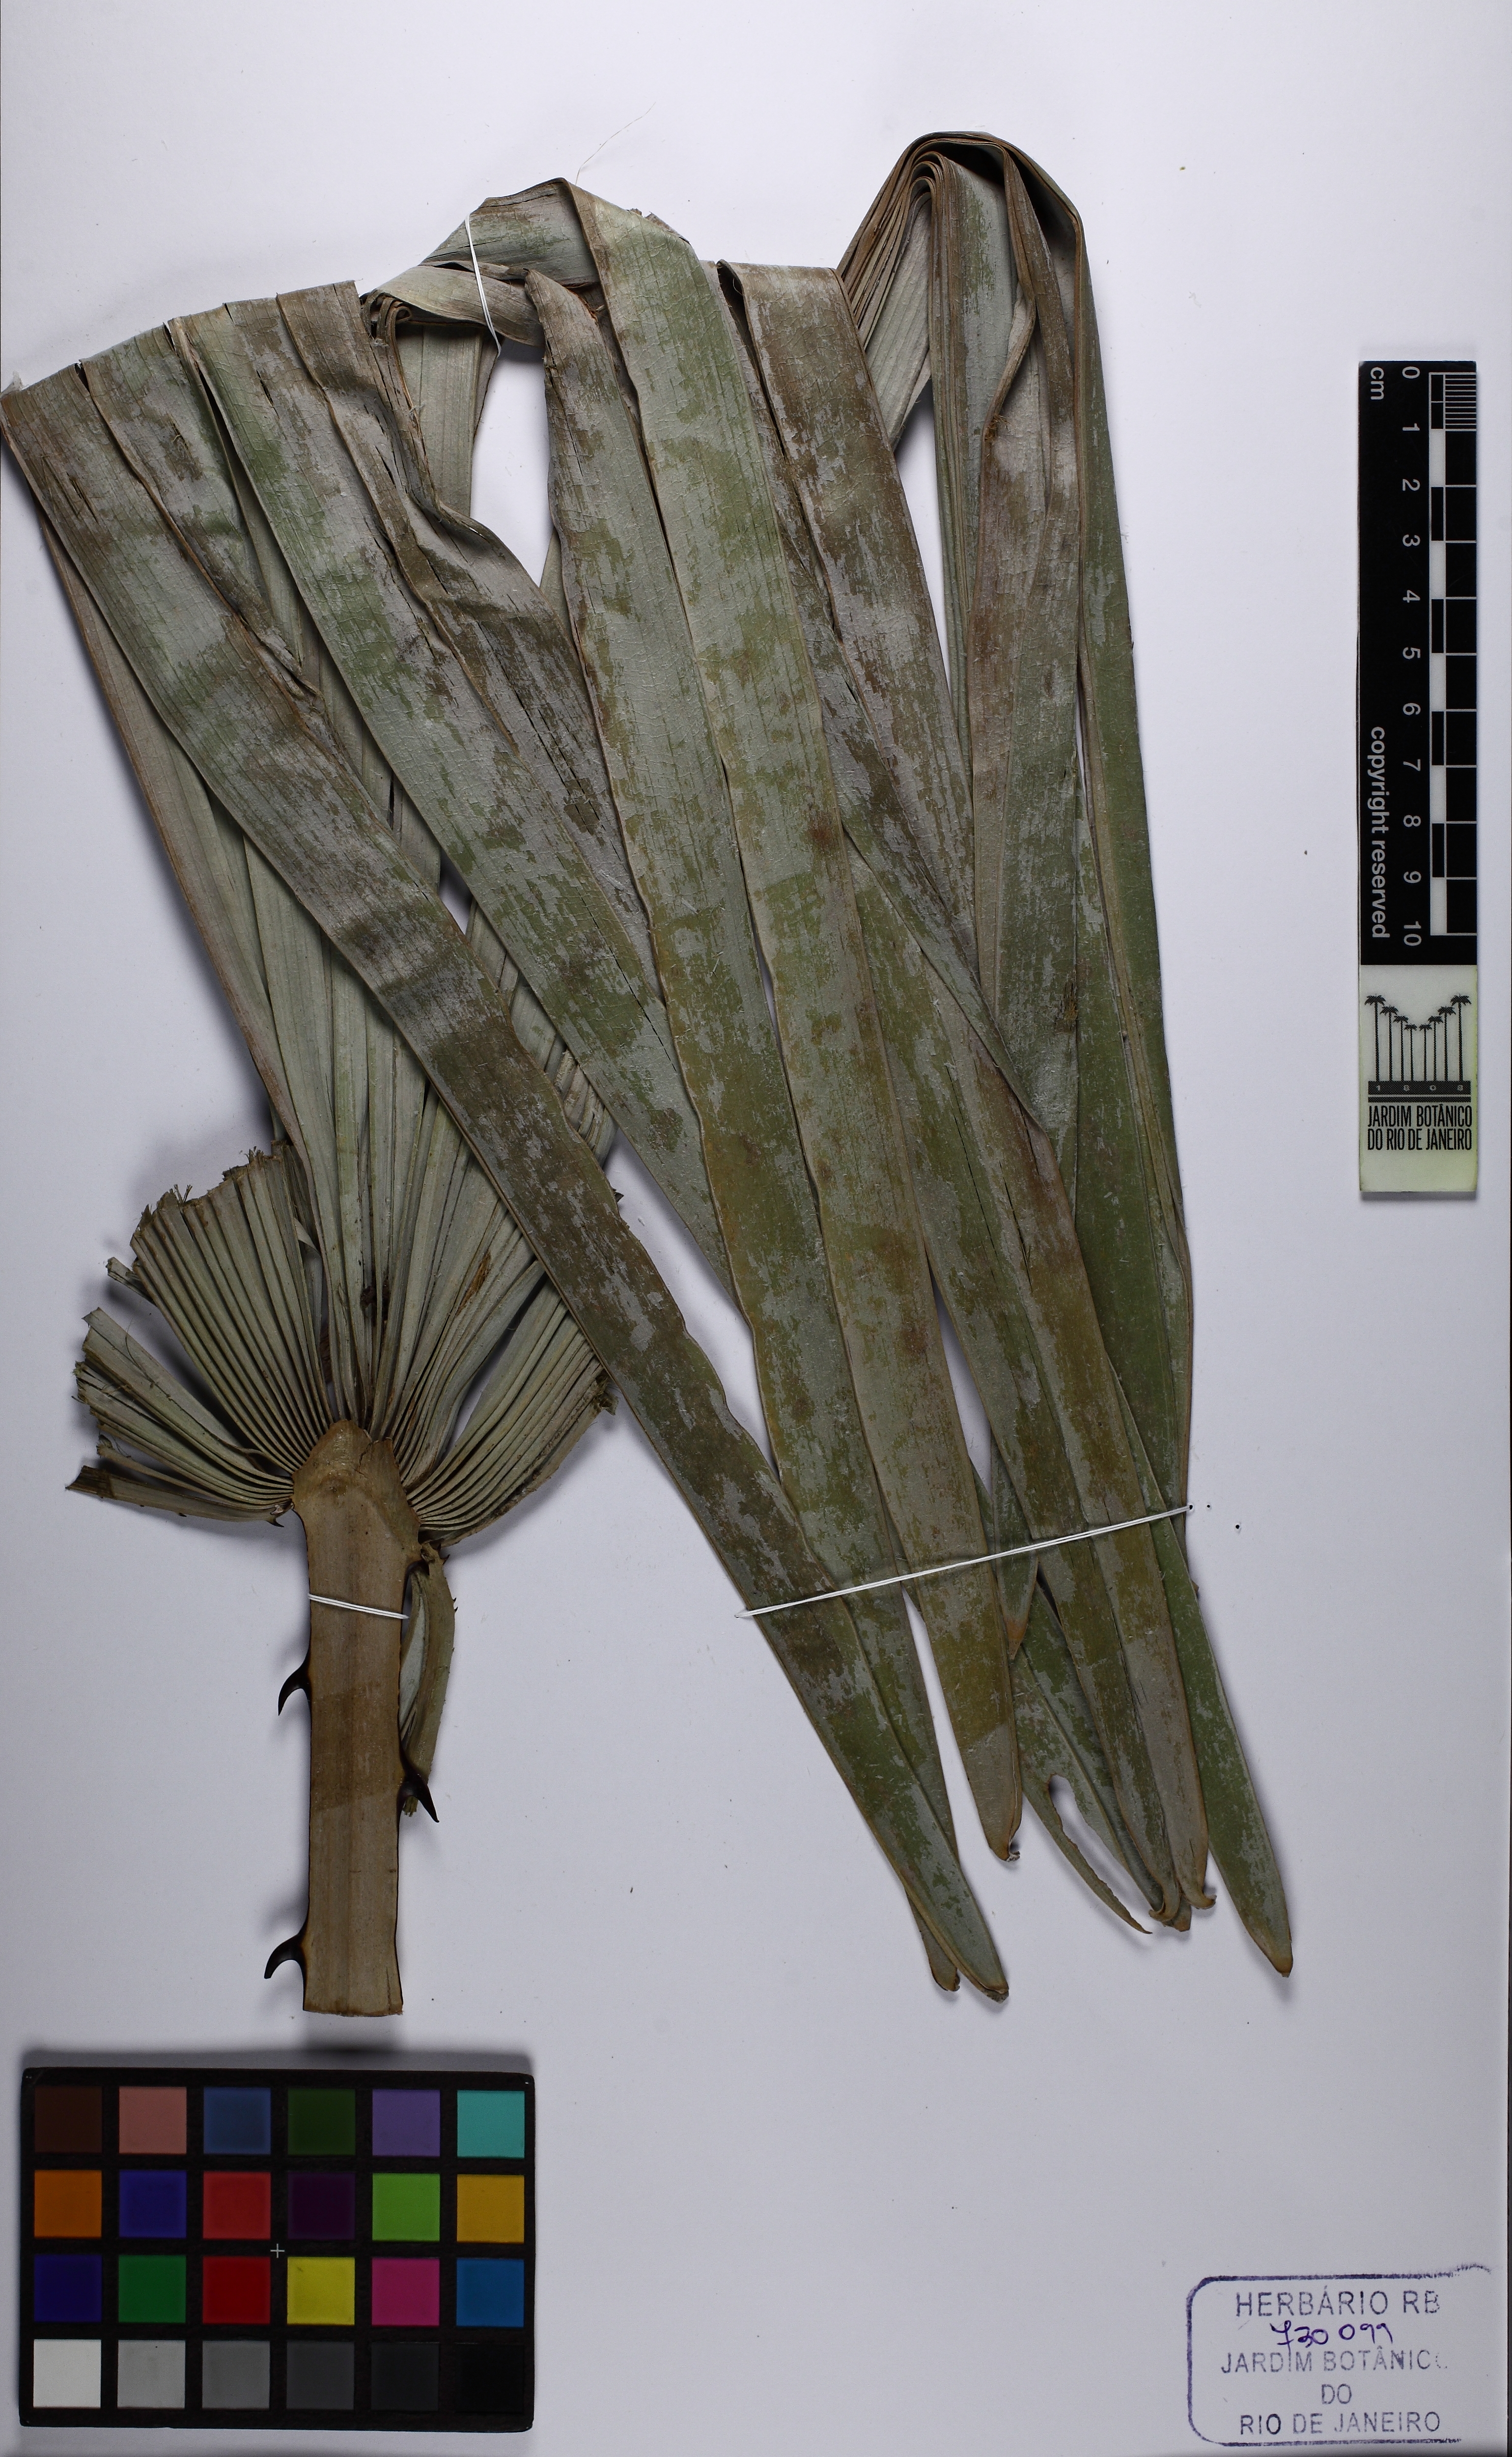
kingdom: Plantae
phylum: Tracheophyta
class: Liliopsida
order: Arecales
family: Arecaceae
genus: Copernicia
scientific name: Copernicia prunifera
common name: Carnauba palm
